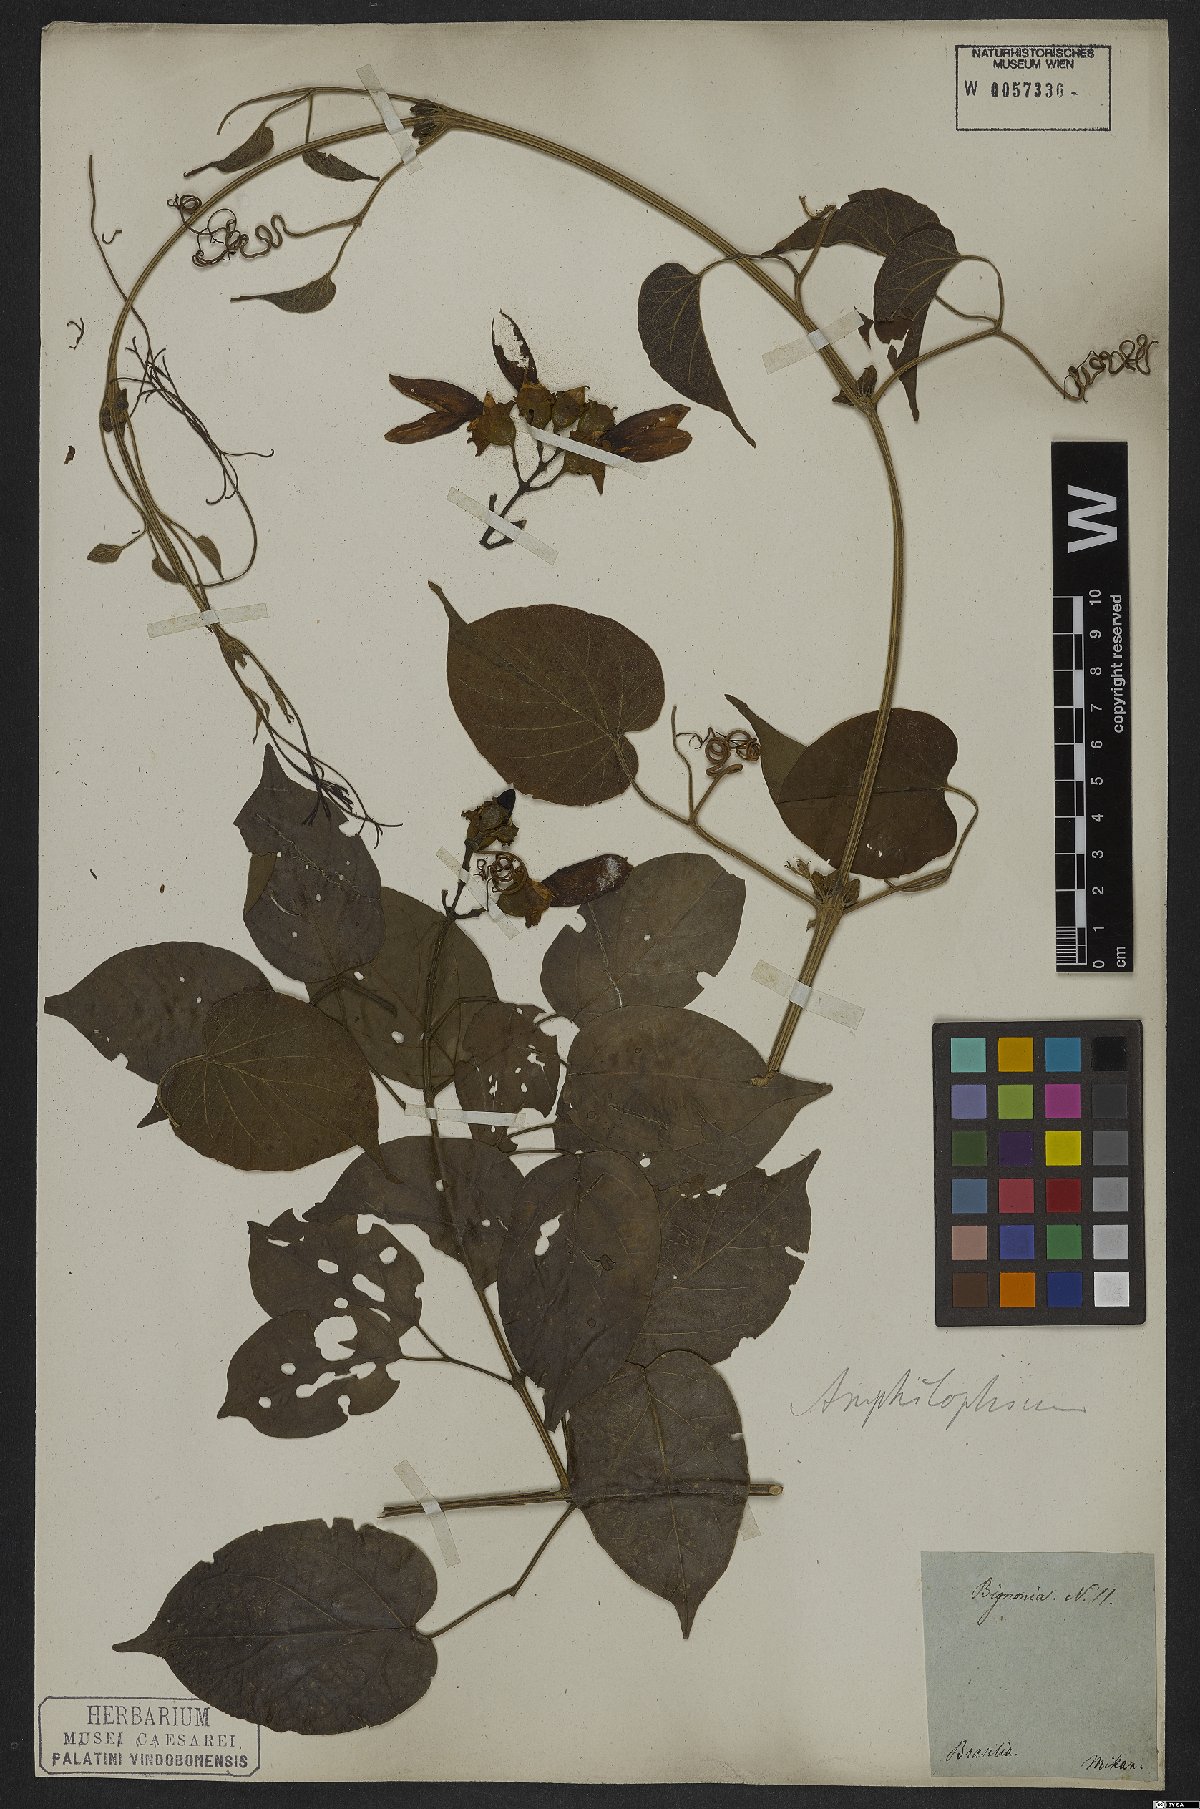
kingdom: Plantae
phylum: Tracheophyta
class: Magnoliopsida
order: Lamiales
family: Bignoniaceae
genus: Amphilophium
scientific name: Amphilophium paniculatum
